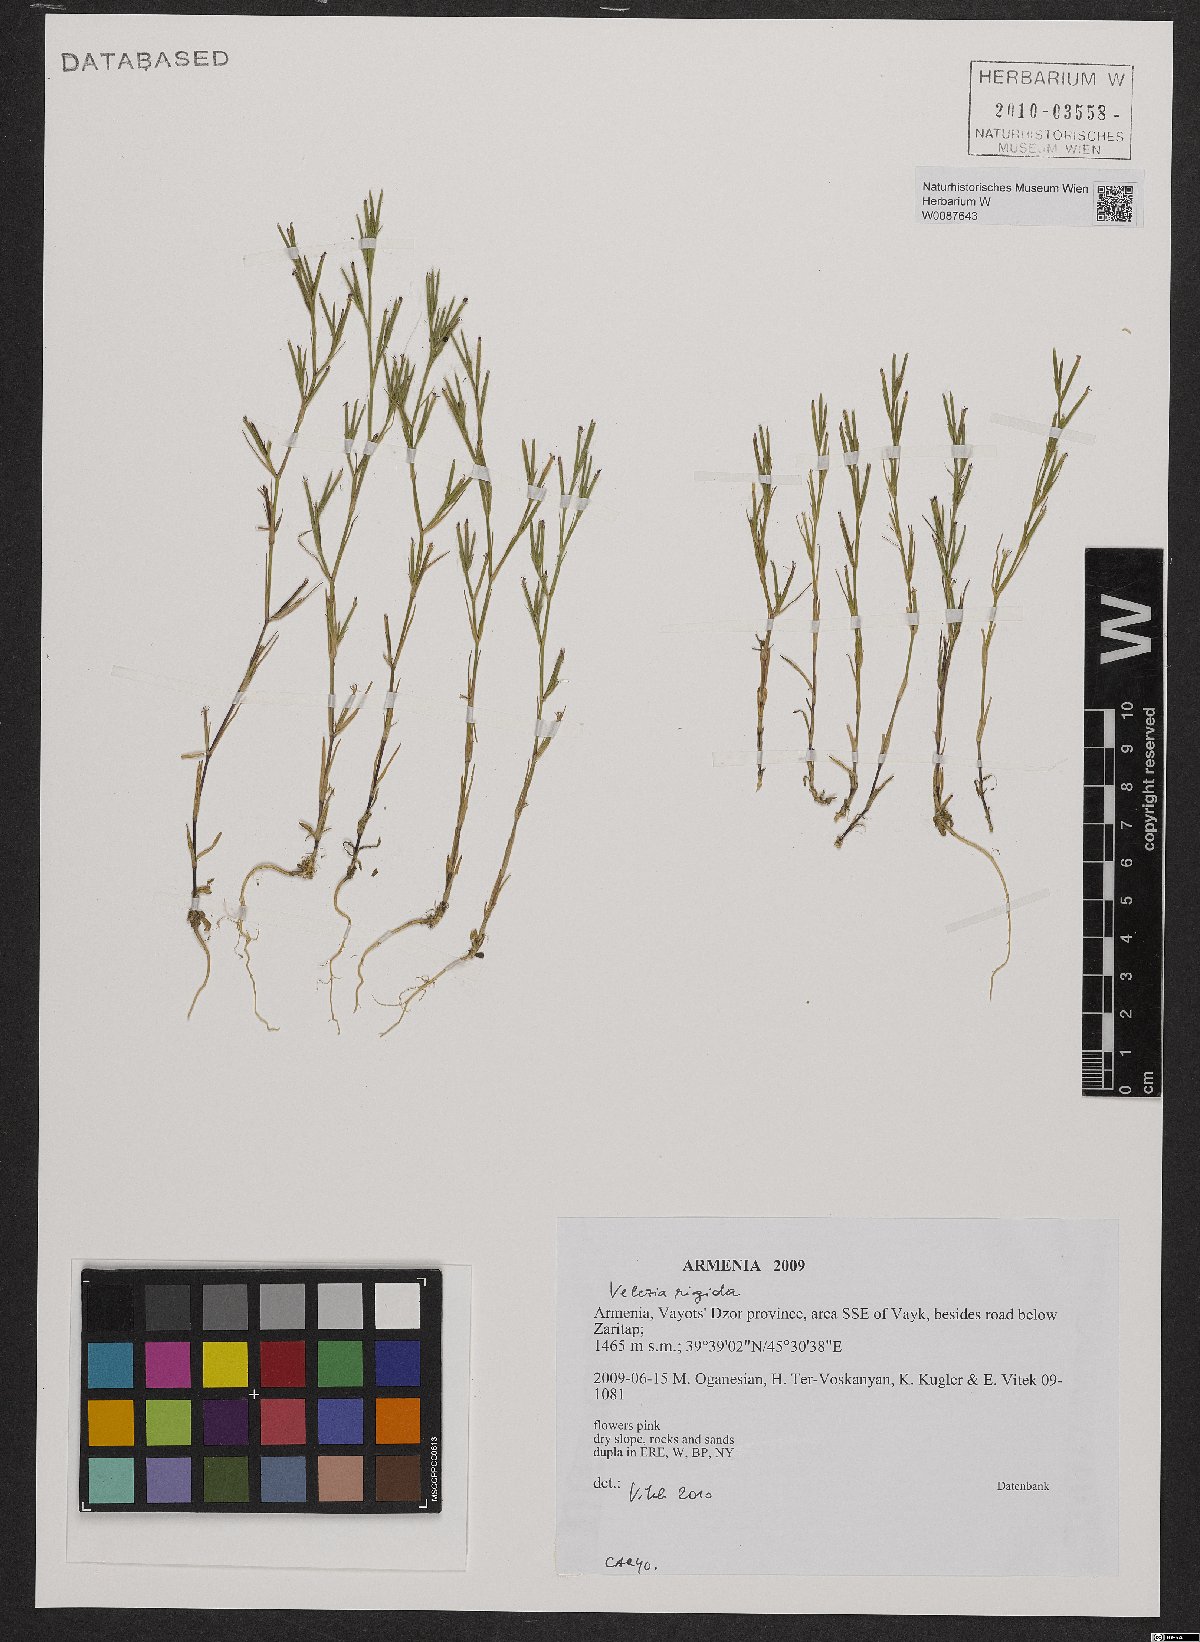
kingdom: Plantae
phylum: Tracheophyta
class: Magnoliopsida
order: Caryophyllales
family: Caryophyllaceae
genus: Dianthus
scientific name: Dianthus nudiflorus
